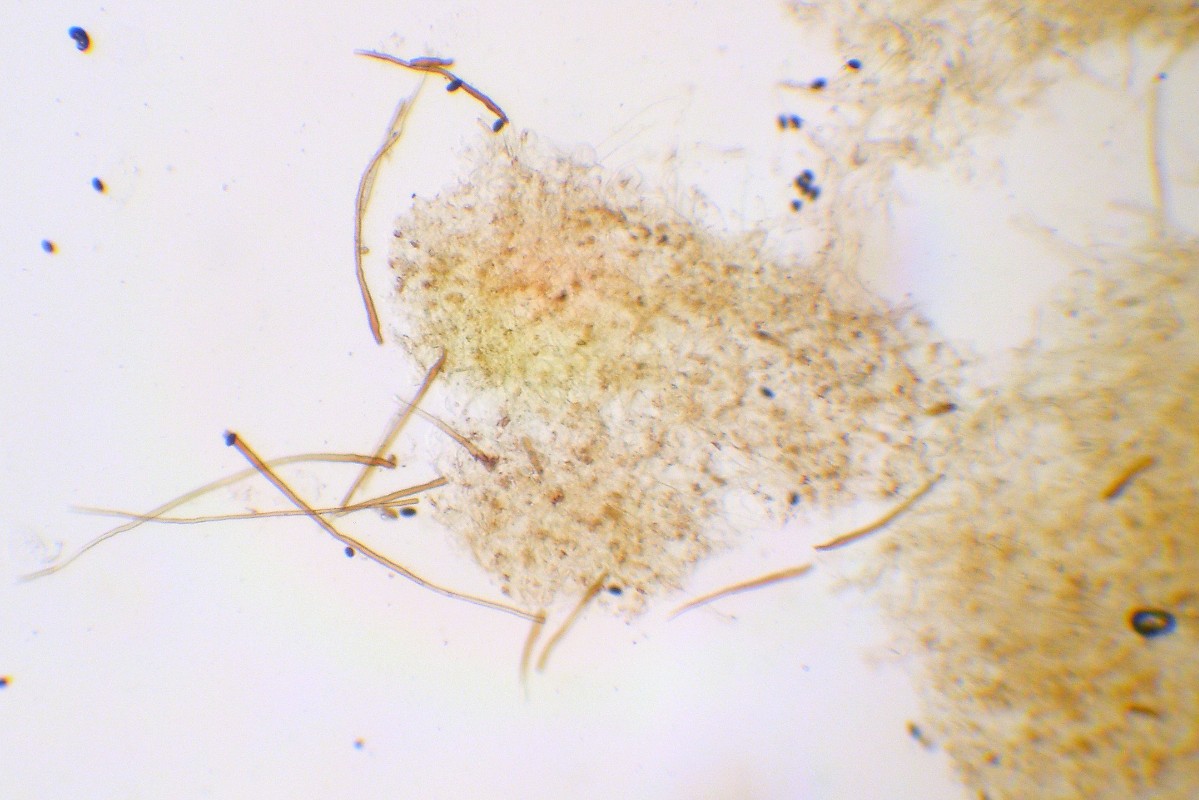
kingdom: Fungi
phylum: Basidiomycota
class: Agaricomycetes
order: Agaricales
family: Psathyrellaceae
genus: Parasola
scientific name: Parasola auricoma
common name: hansens hjulhat
